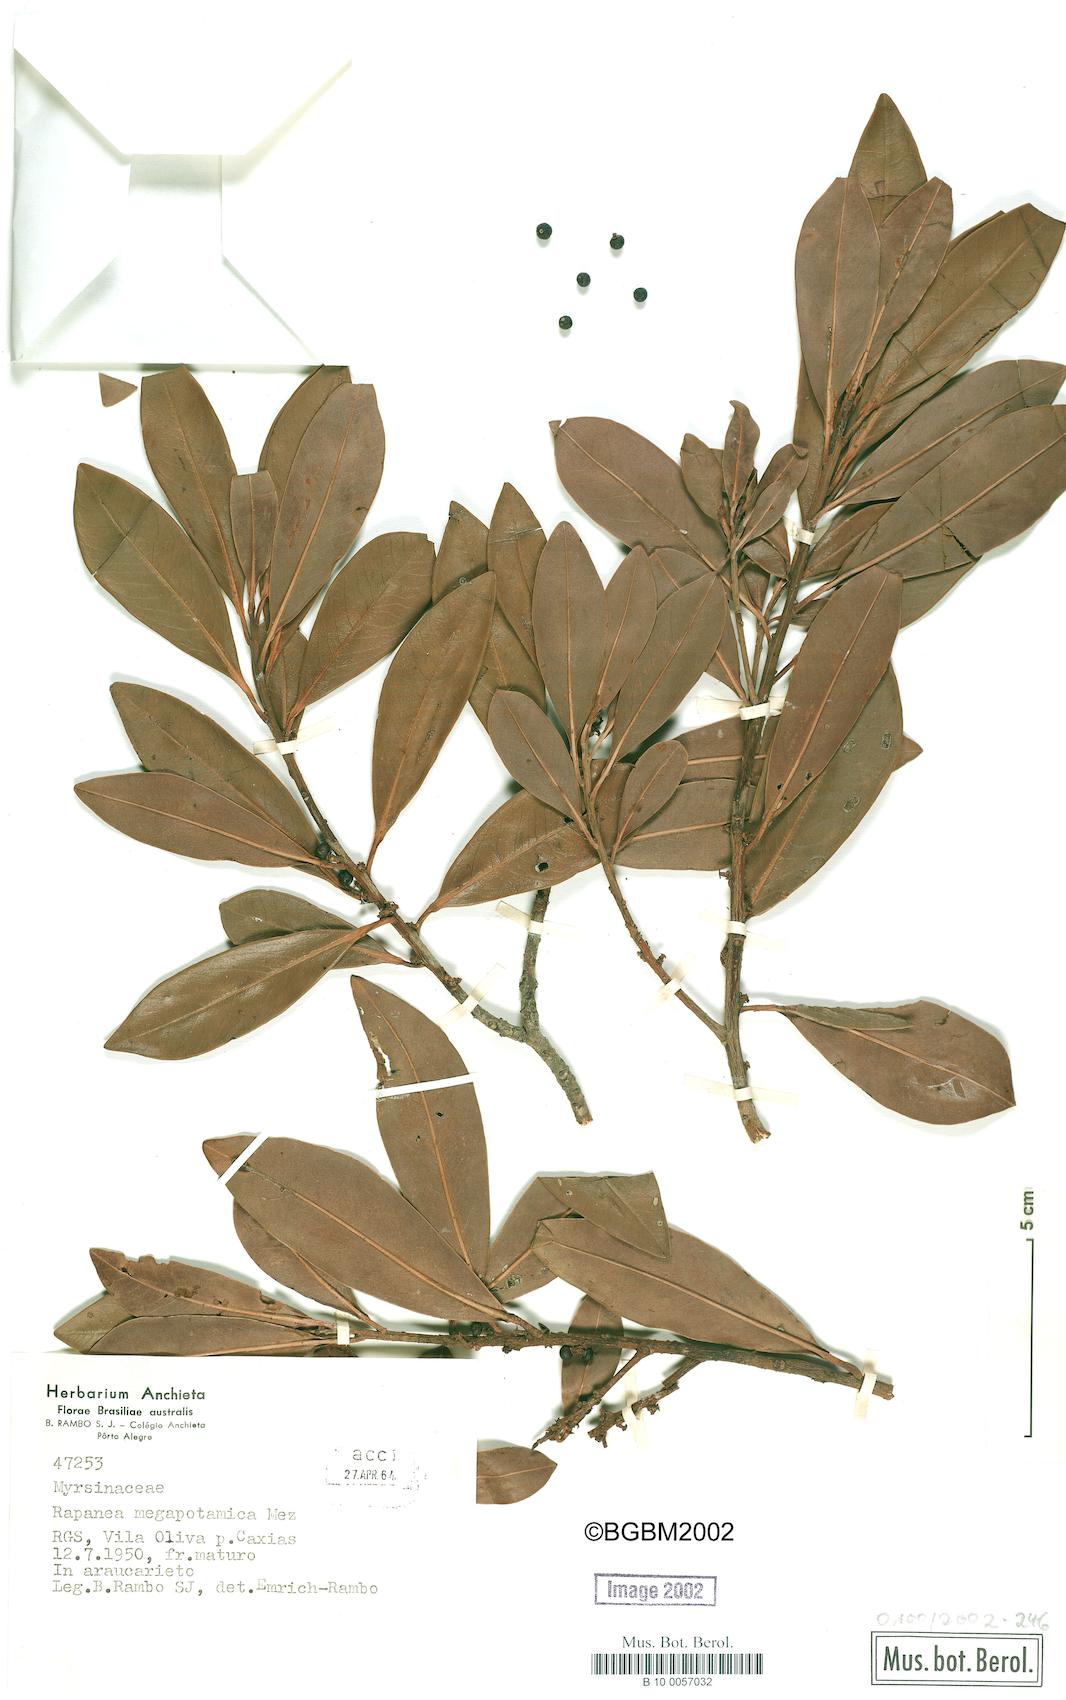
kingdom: Plantae
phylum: Tracheophyta
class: Magnoliopsida
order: Ericales
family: Primulaceae
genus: Myrsine
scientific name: Myrsine lorentziana
